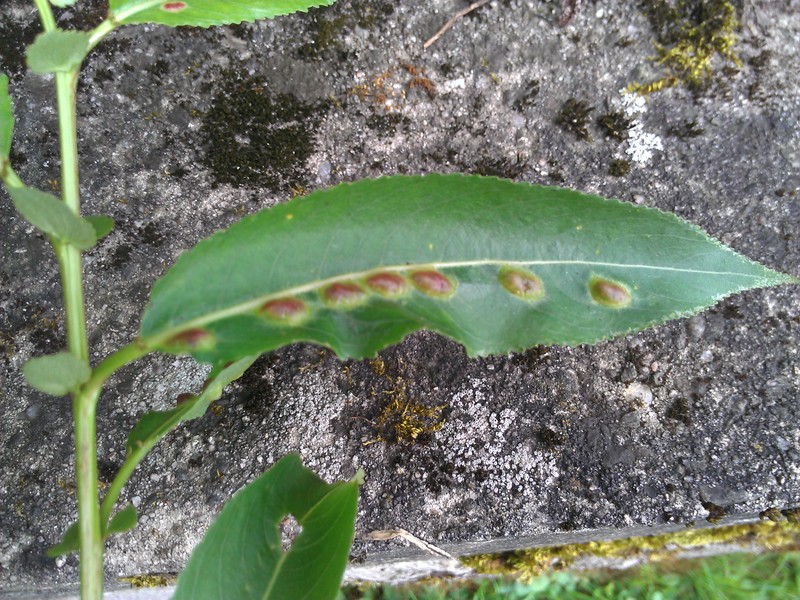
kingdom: Animalia
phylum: Arthropoda
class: Insecta
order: Hymenoptera
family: Tenthredinidae
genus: Pontania
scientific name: Pontania proxima
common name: Common sawfly
